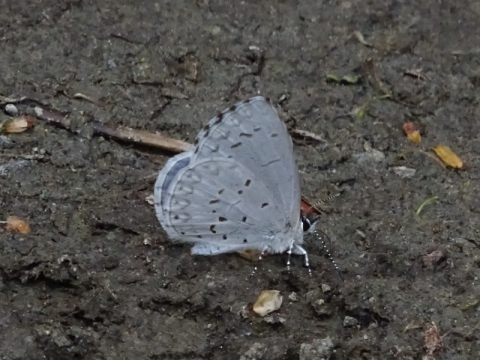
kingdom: Animalia
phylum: Arthropoda
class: Insecta
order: Lepidoptera
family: Lycaenidae
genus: Celastrina
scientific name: Celastrina lucia
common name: Northern Spring Azure
